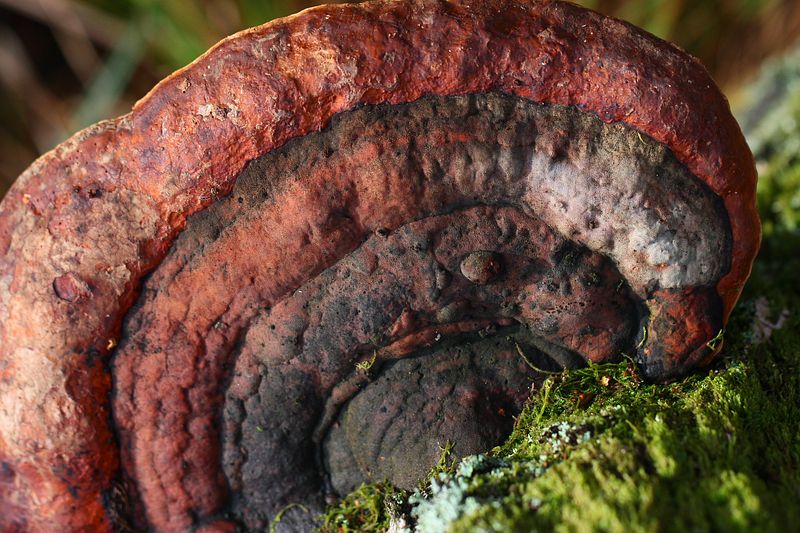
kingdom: Fungi
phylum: Basidiomycota
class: Agaricomycetes
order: Polyporales
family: Fomitopsidaceae
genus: Fomitopsis
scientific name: Fomitopsis pinicola
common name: randbæltet hovporesvamp
